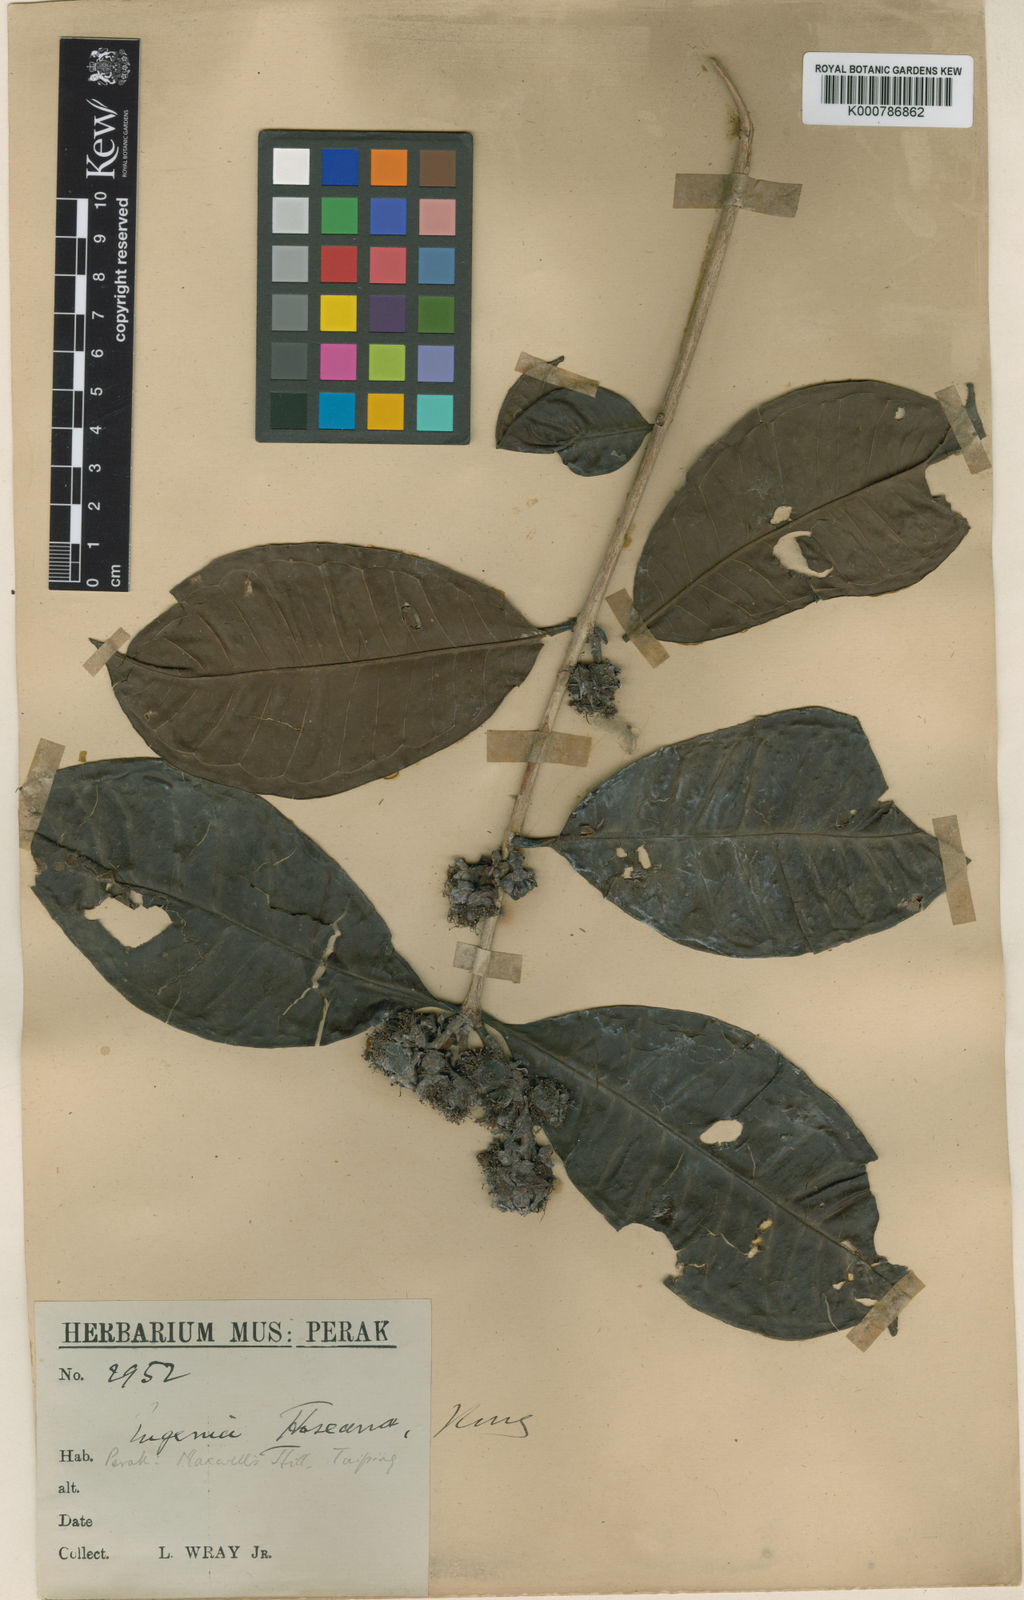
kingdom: Plantae
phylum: Tracheophyta
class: Magnoliopsida
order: Myrtales
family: Myrtaceae
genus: Syzygium
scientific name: Syzygium hoseanum
